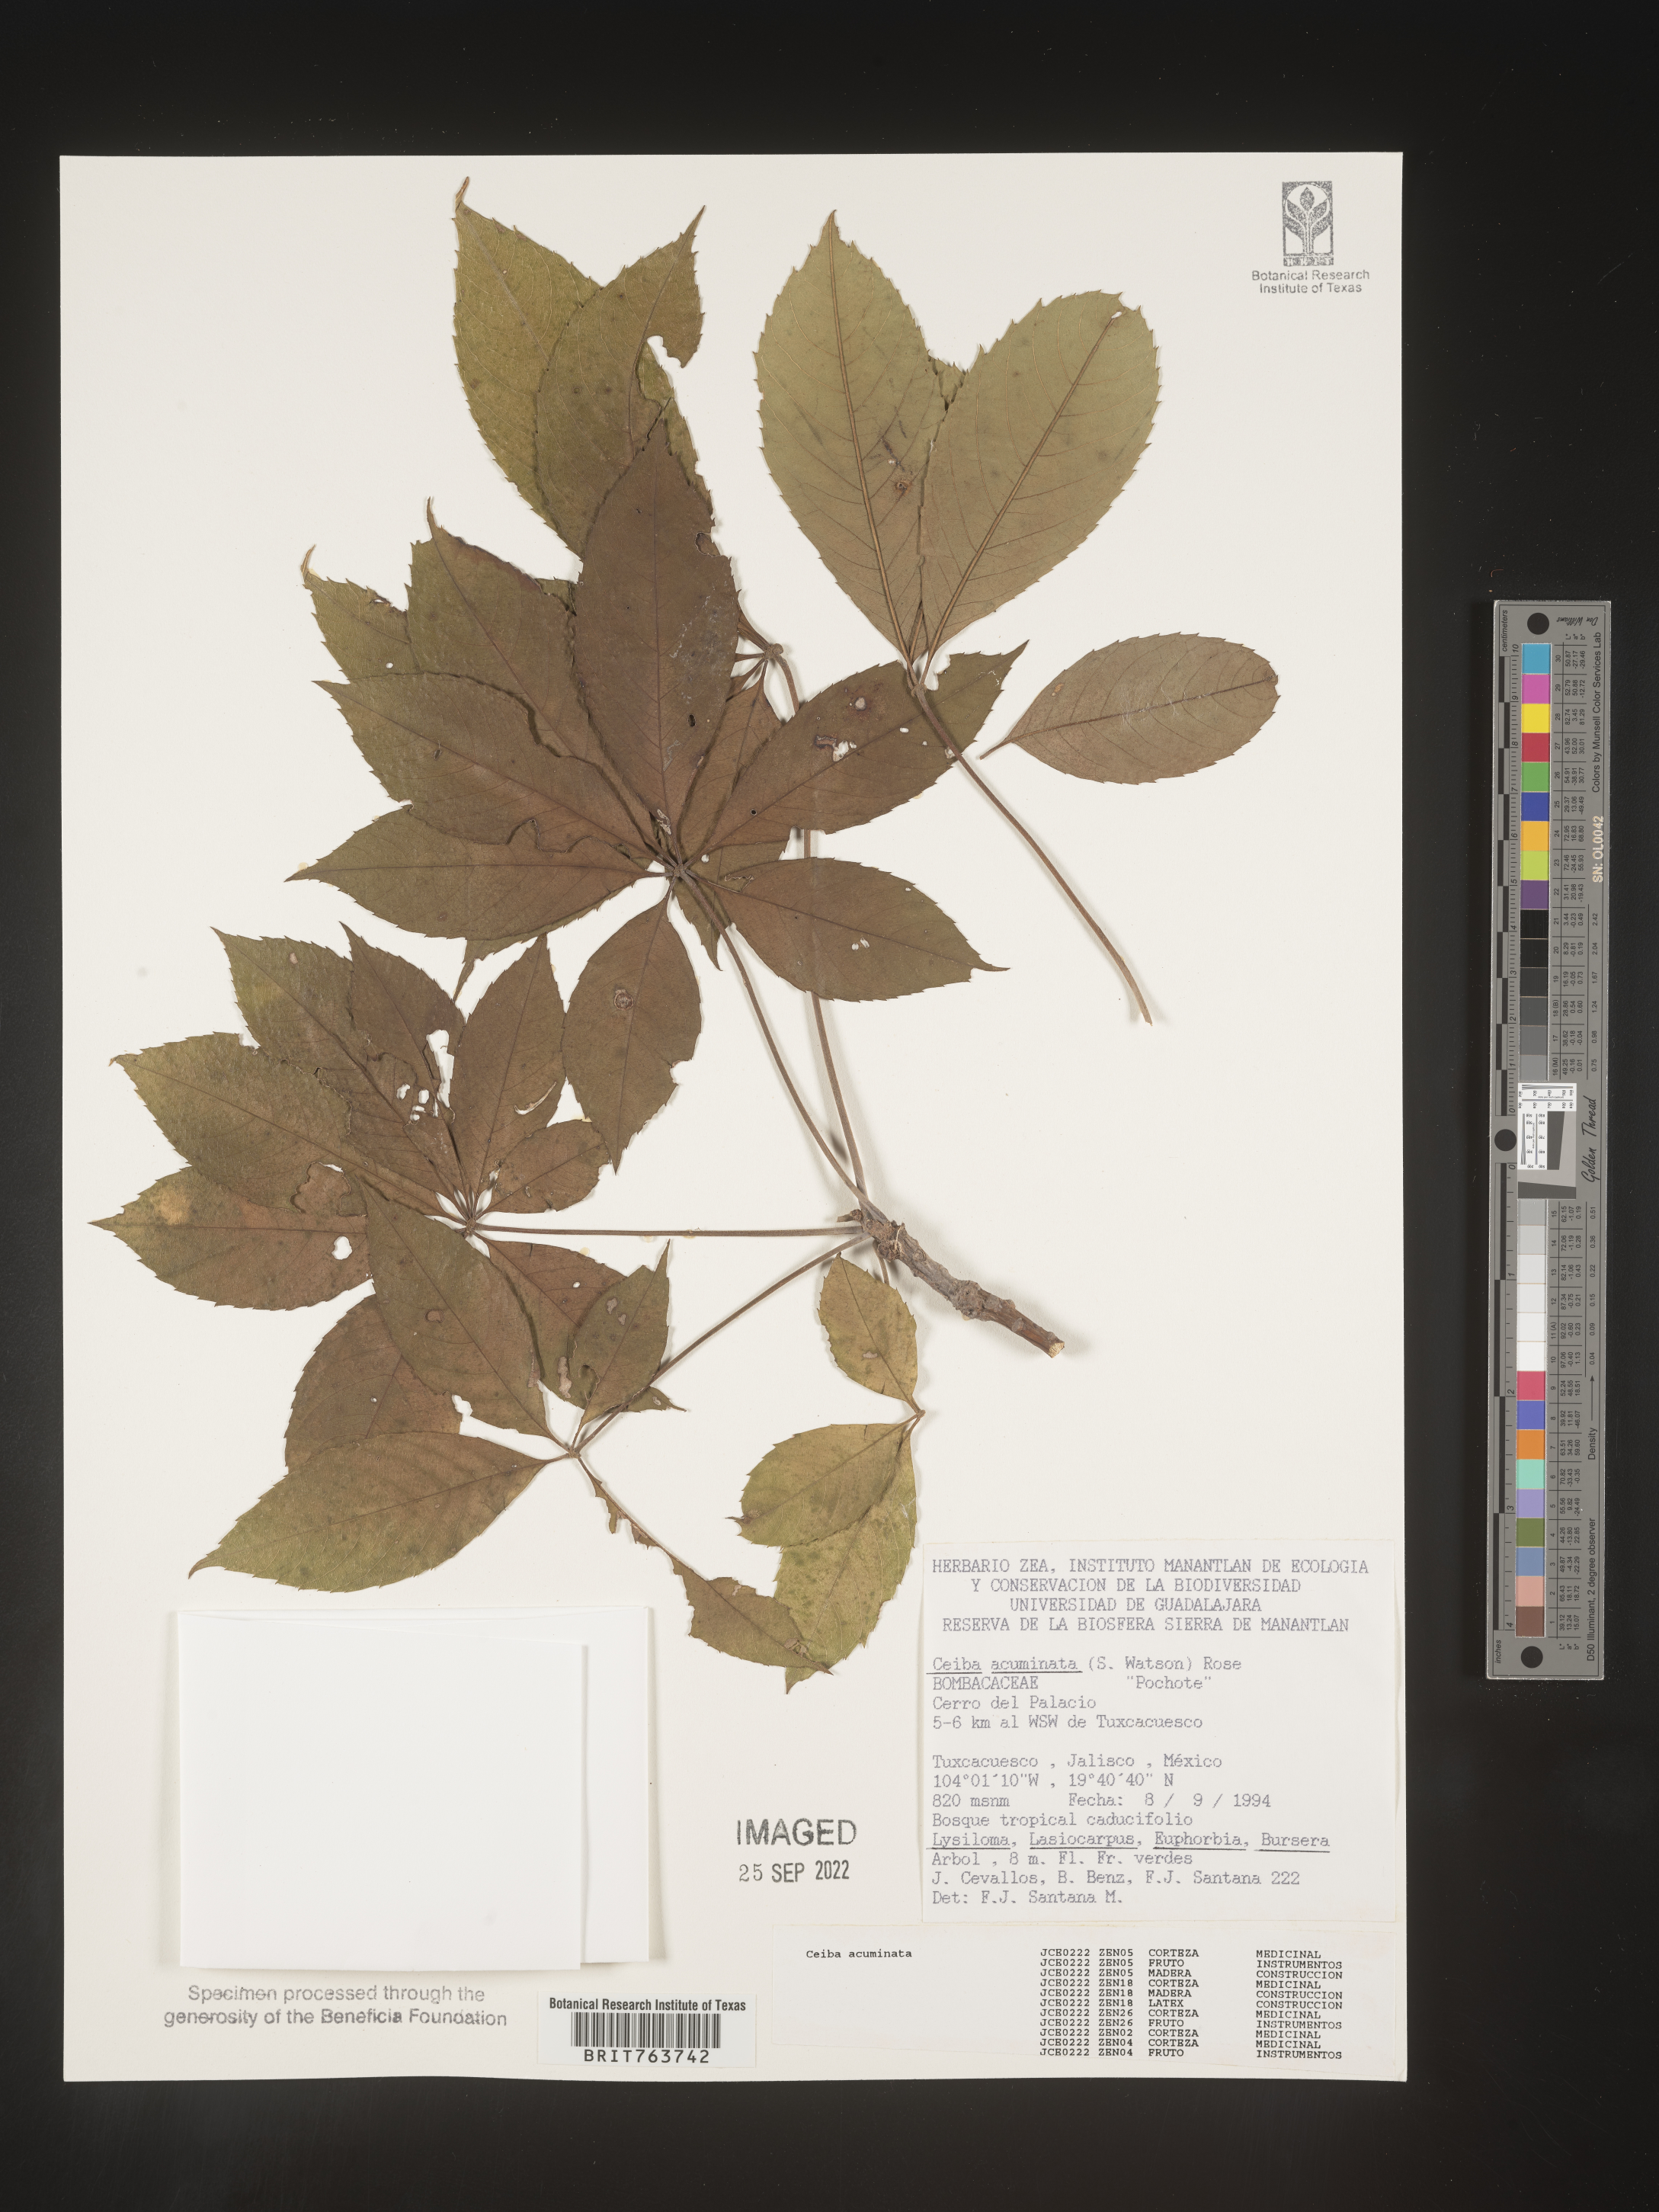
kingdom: Plantae
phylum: Tracheophyta
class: Magnoliopsida
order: Malvales
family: Malvaceae
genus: Ceiba
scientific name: Ceiba
